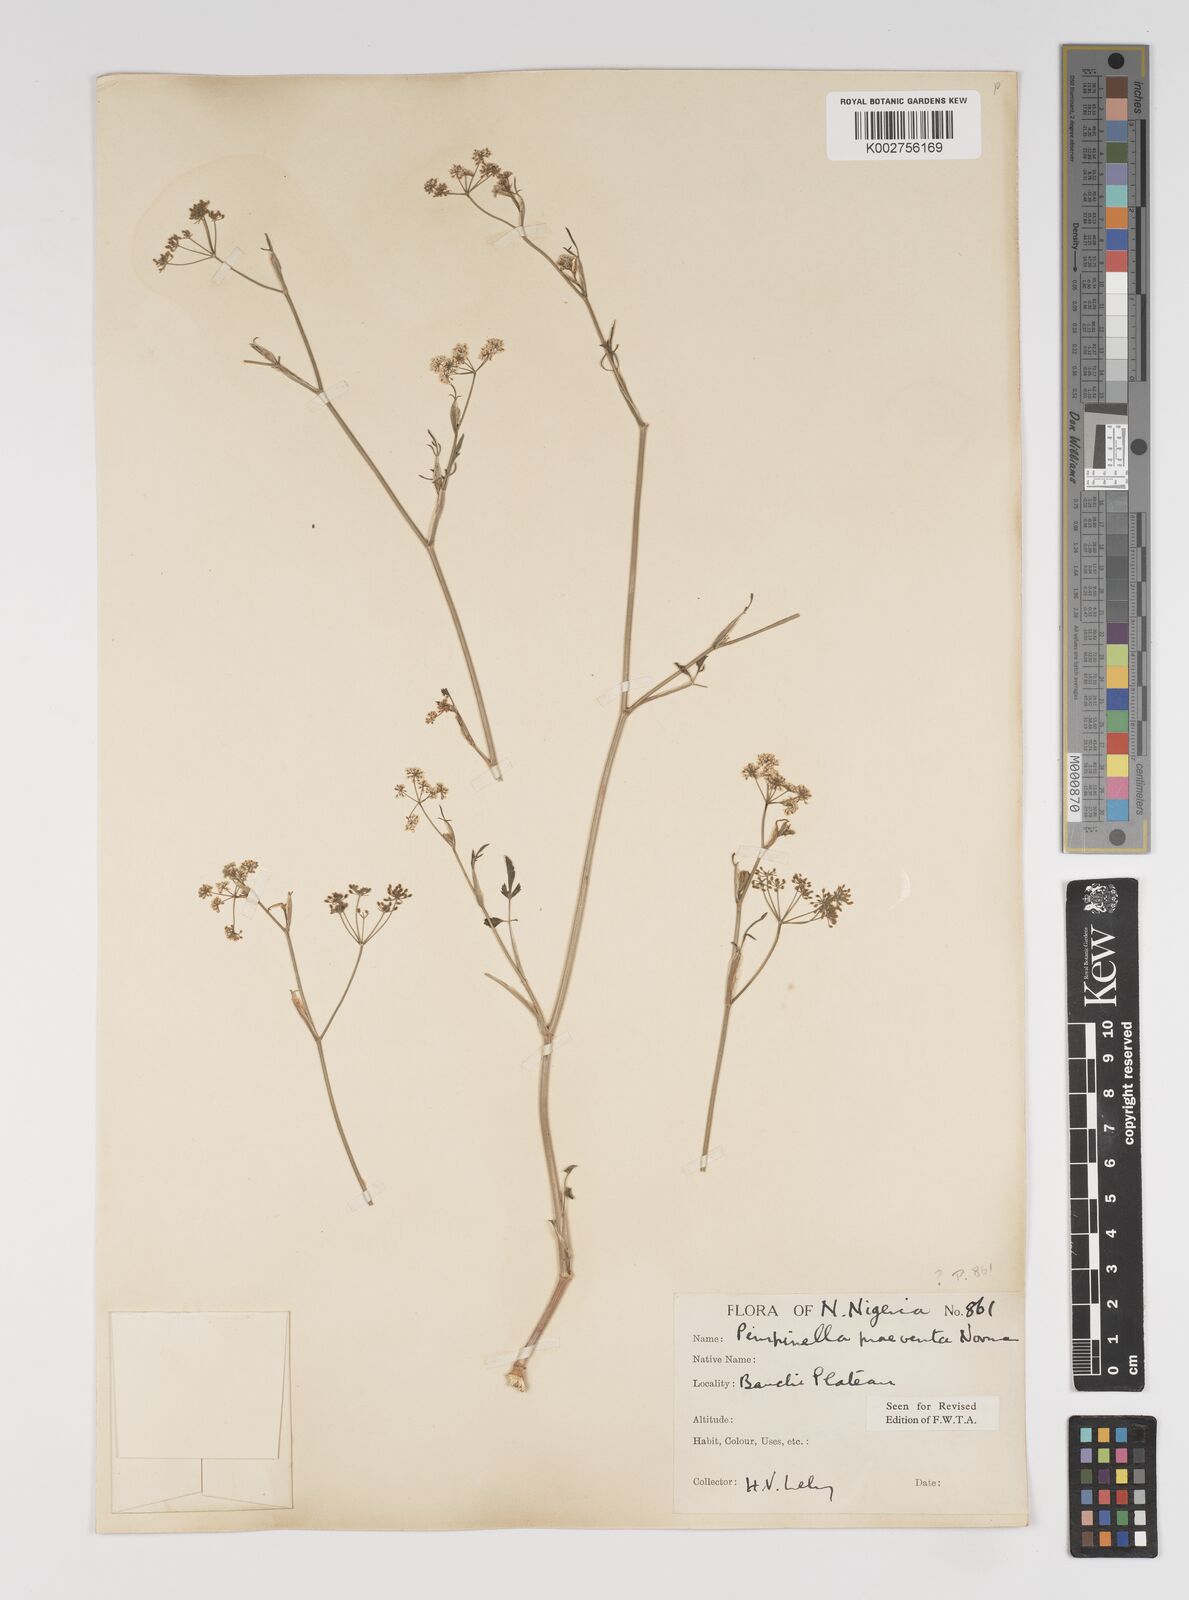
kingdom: Plantae
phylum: Tracheophyta
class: Magnoliopsida
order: Apiales
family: Apiaceae
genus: Pimpinella
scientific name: Pimpinella hirtella
